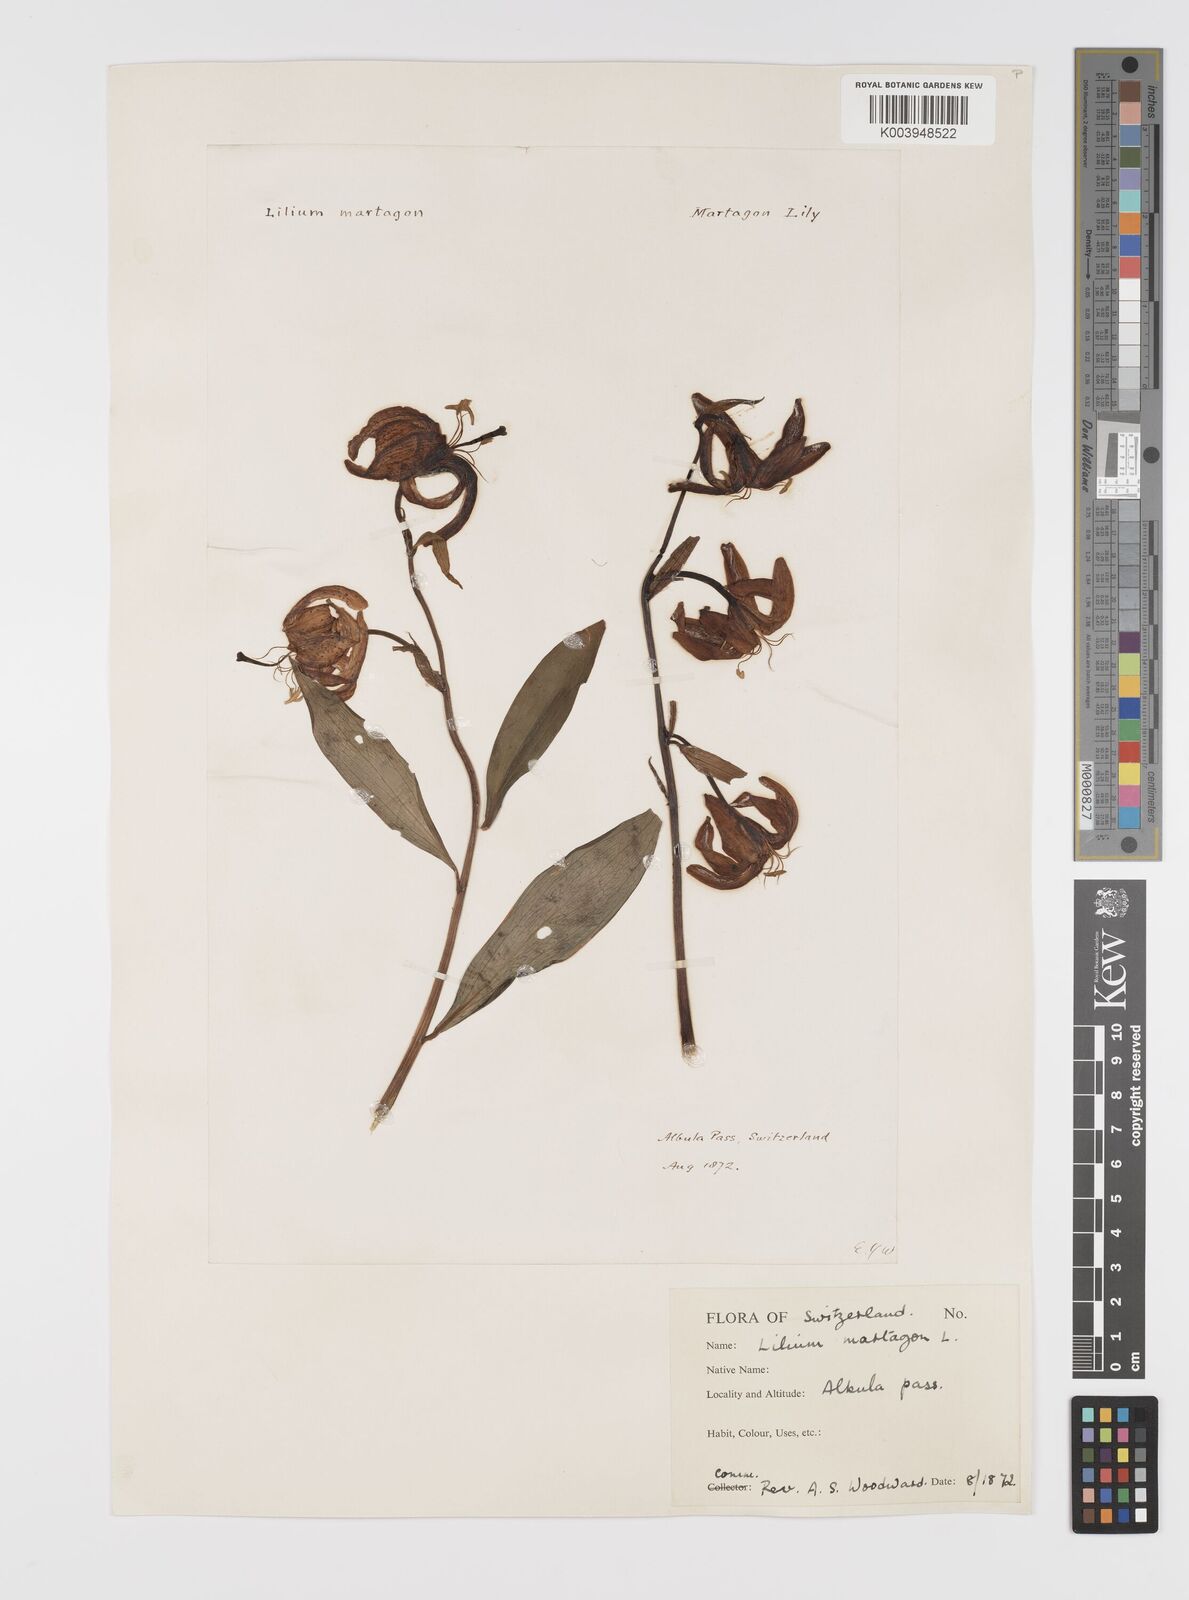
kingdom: Plantae
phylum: Tracheophyta
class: Liliopsida
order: Liliales
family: Liliaceae
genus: Lilium
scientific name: Lilium martagon
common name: Martagon lily
